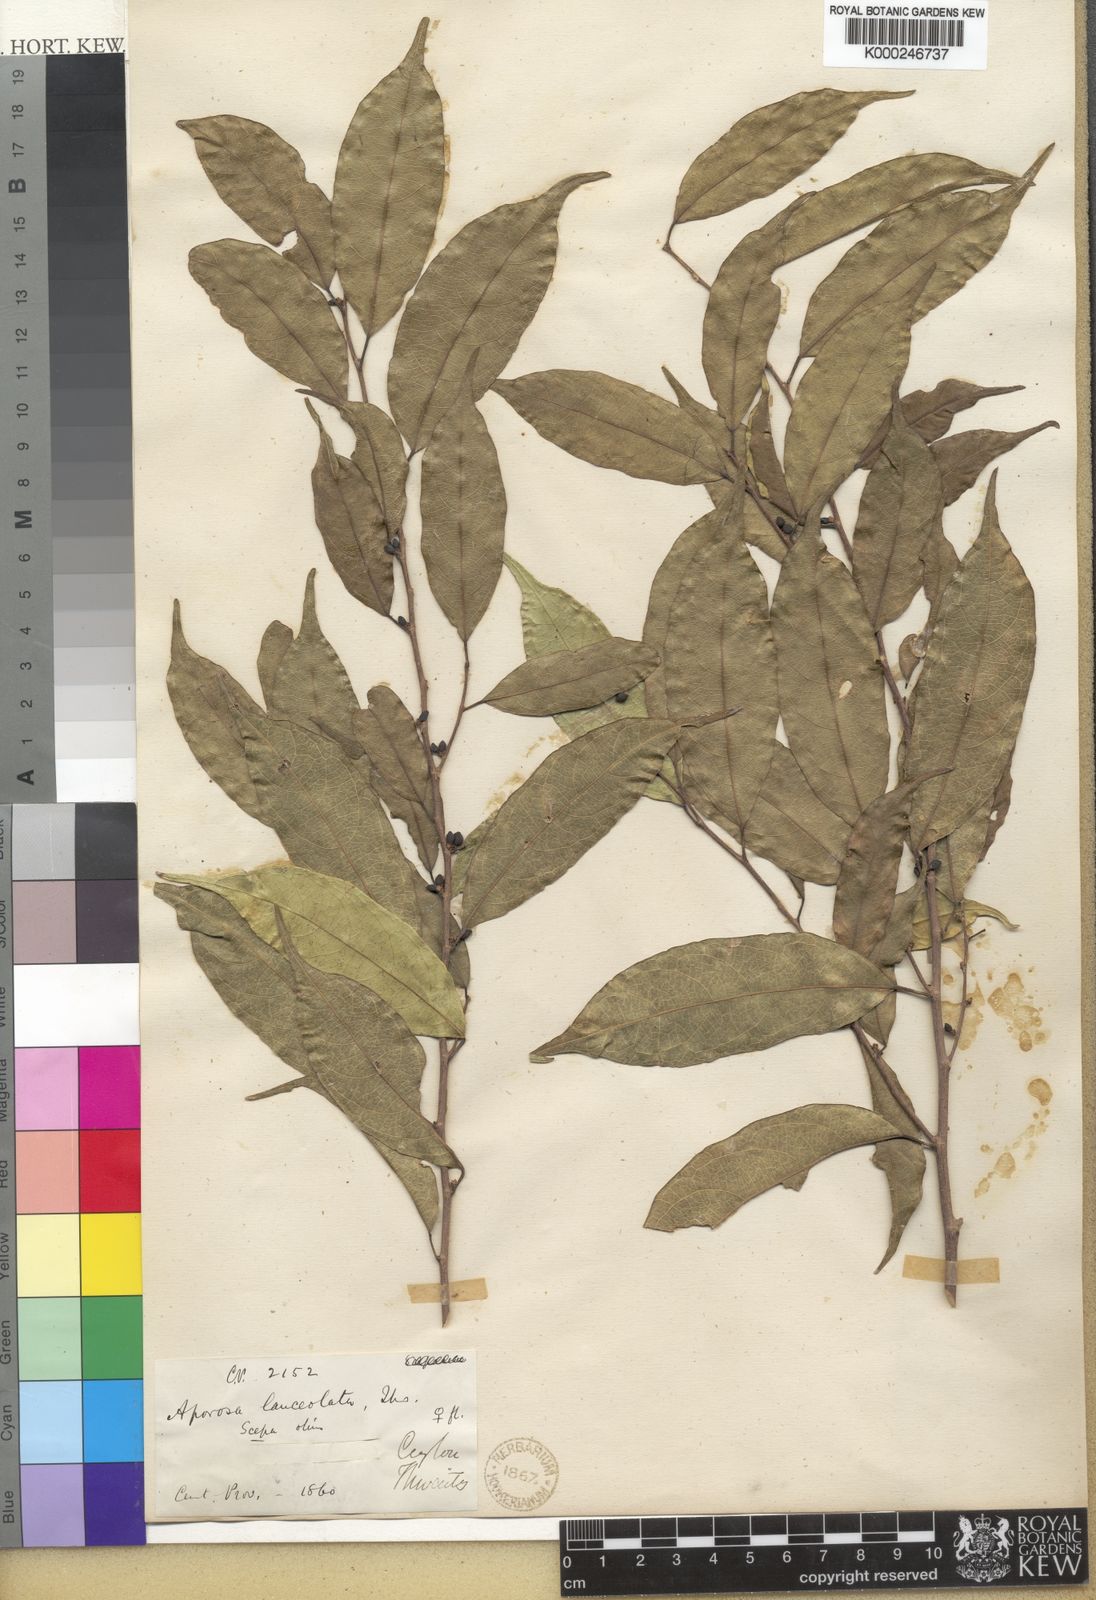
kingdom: Plantae
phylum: Tracheophyta
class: Magnoliopsida
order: Malpighiales
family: Phyllanthaceae
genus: Aporosa
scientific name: Aporosa lanceolata
